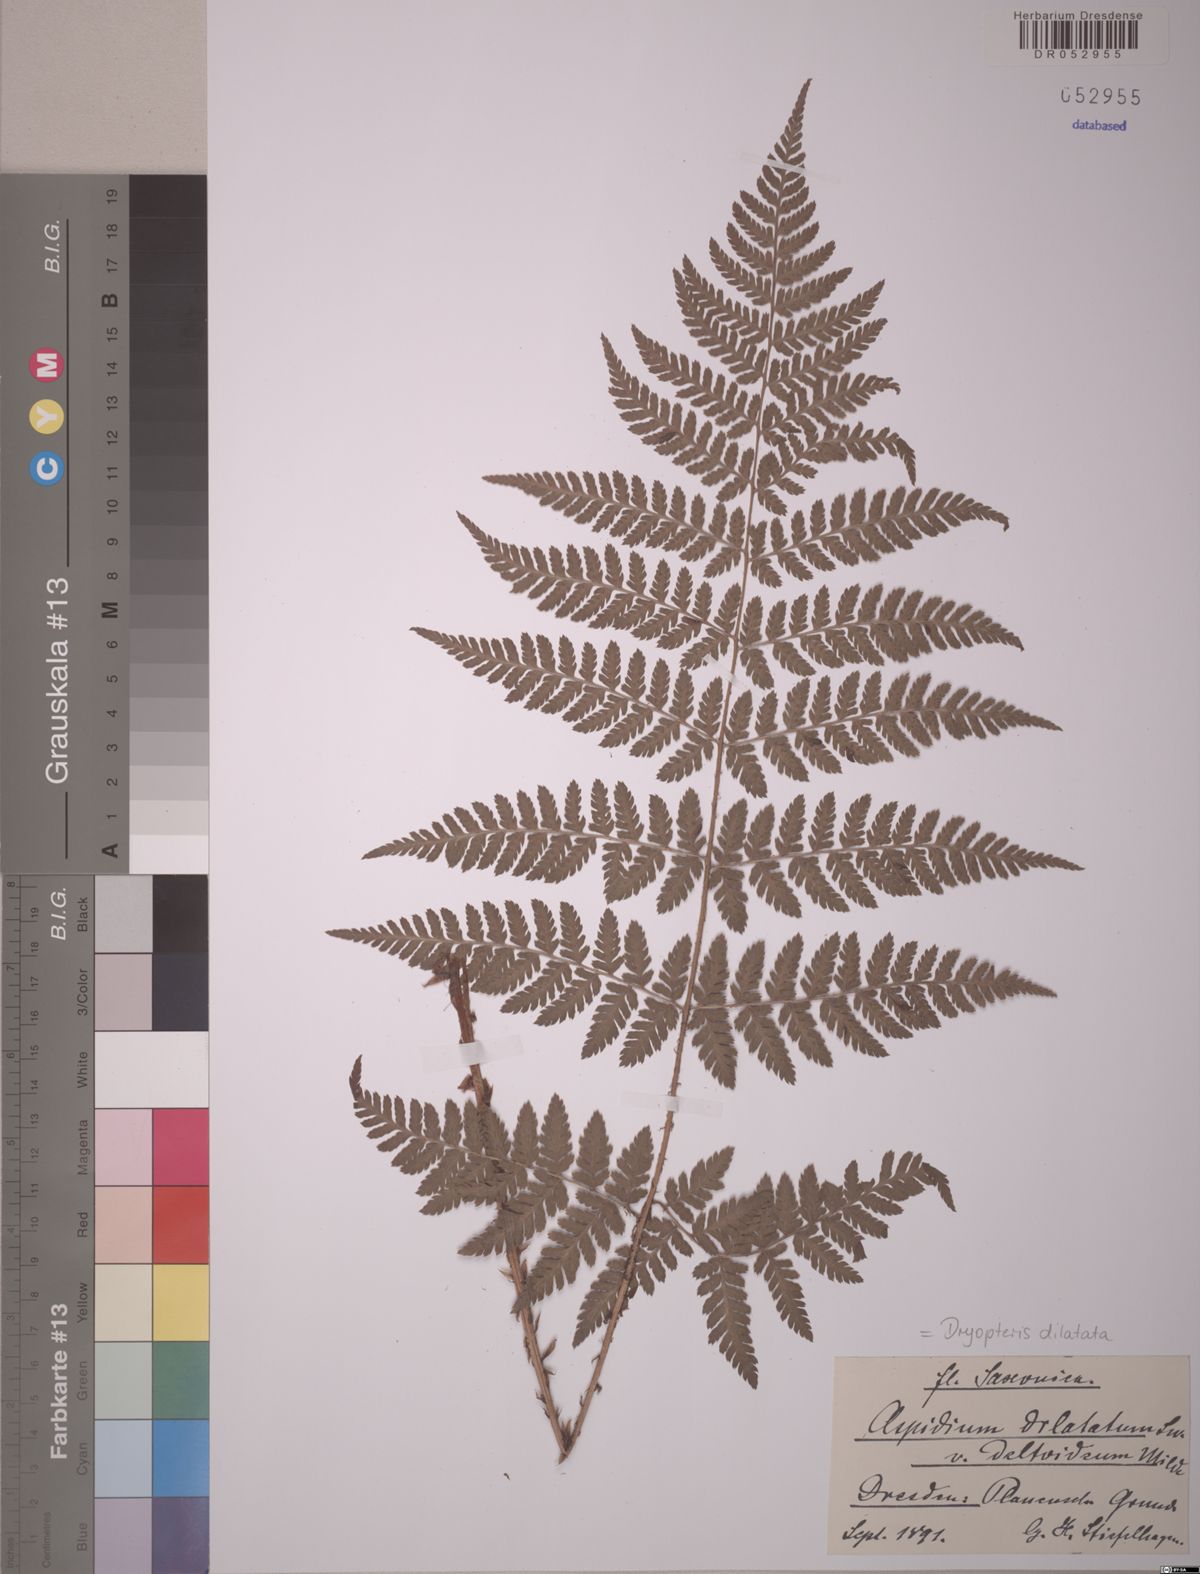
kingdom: Plantae
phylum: Tracheophyta
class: Polypodiopsida
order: Polypodiales
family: Dryopteridaceae
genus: Dryopteris
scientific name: Dryopteris dilatata
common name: Broad buckler-fern
